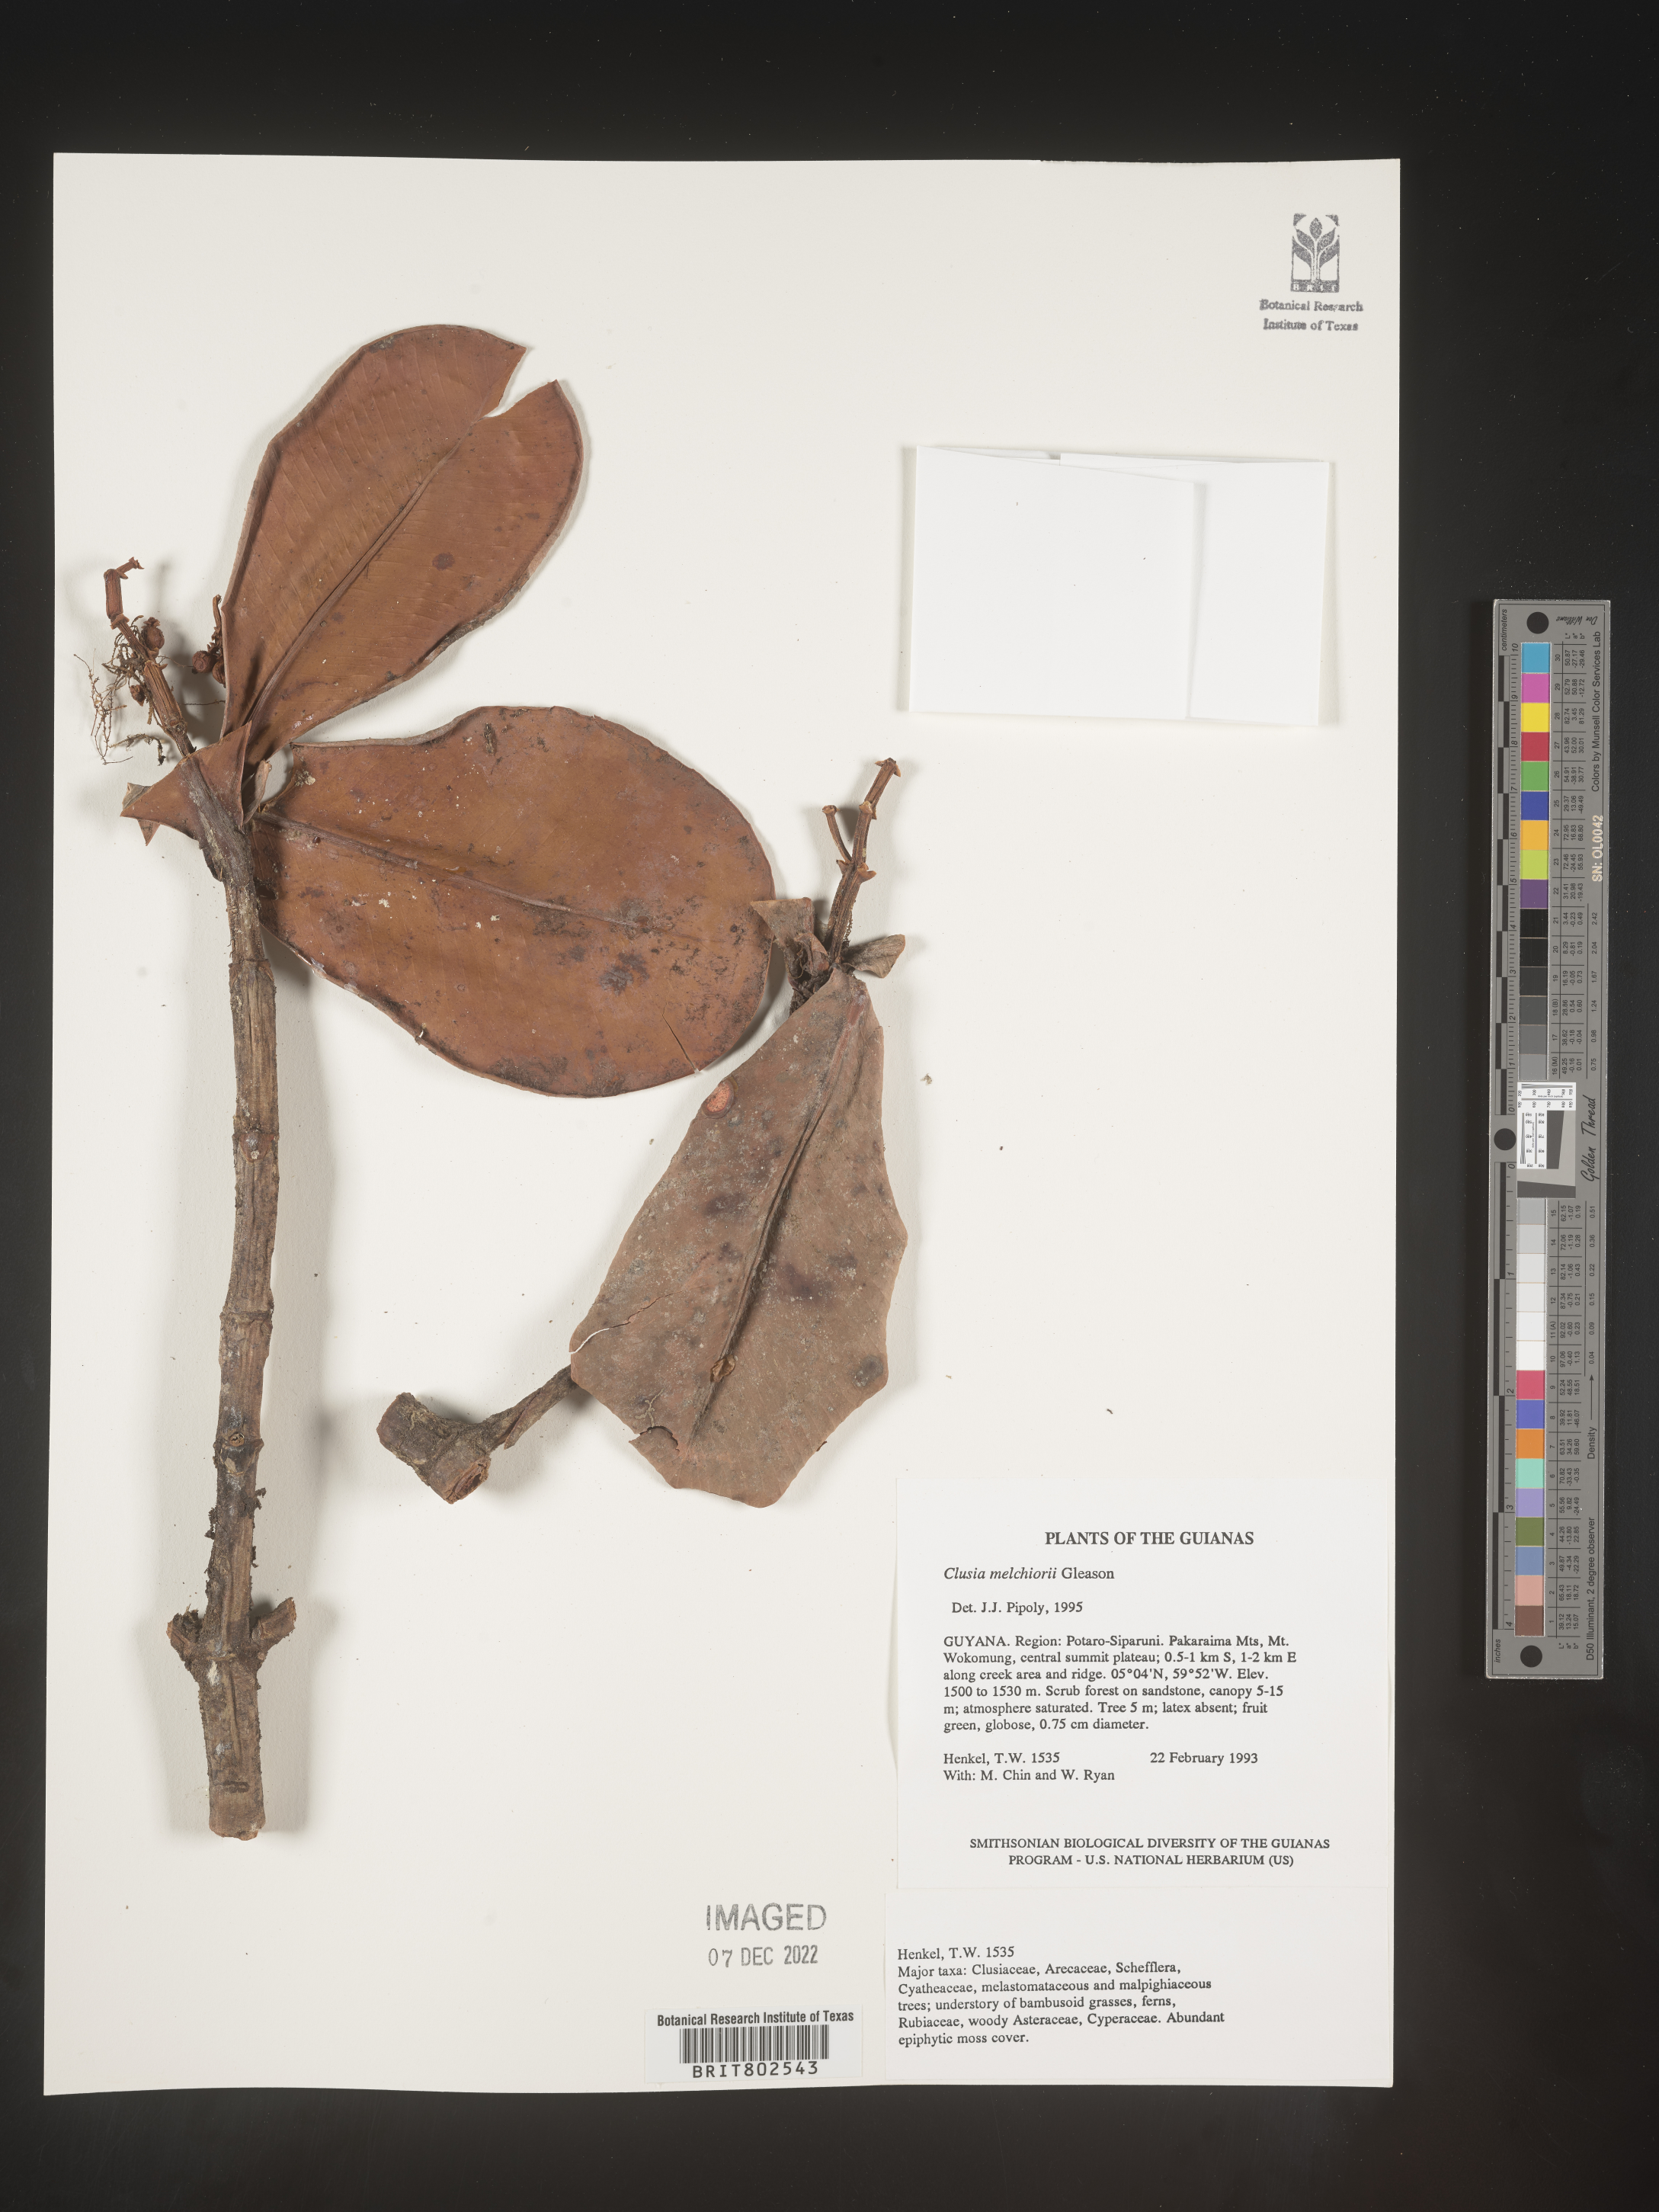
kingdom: Plantae
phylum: Tracheophyta
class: Magnoliopsida
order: Malpighiales
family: Clusiaceae
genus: Clusia
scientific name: Clusia melchiorii
